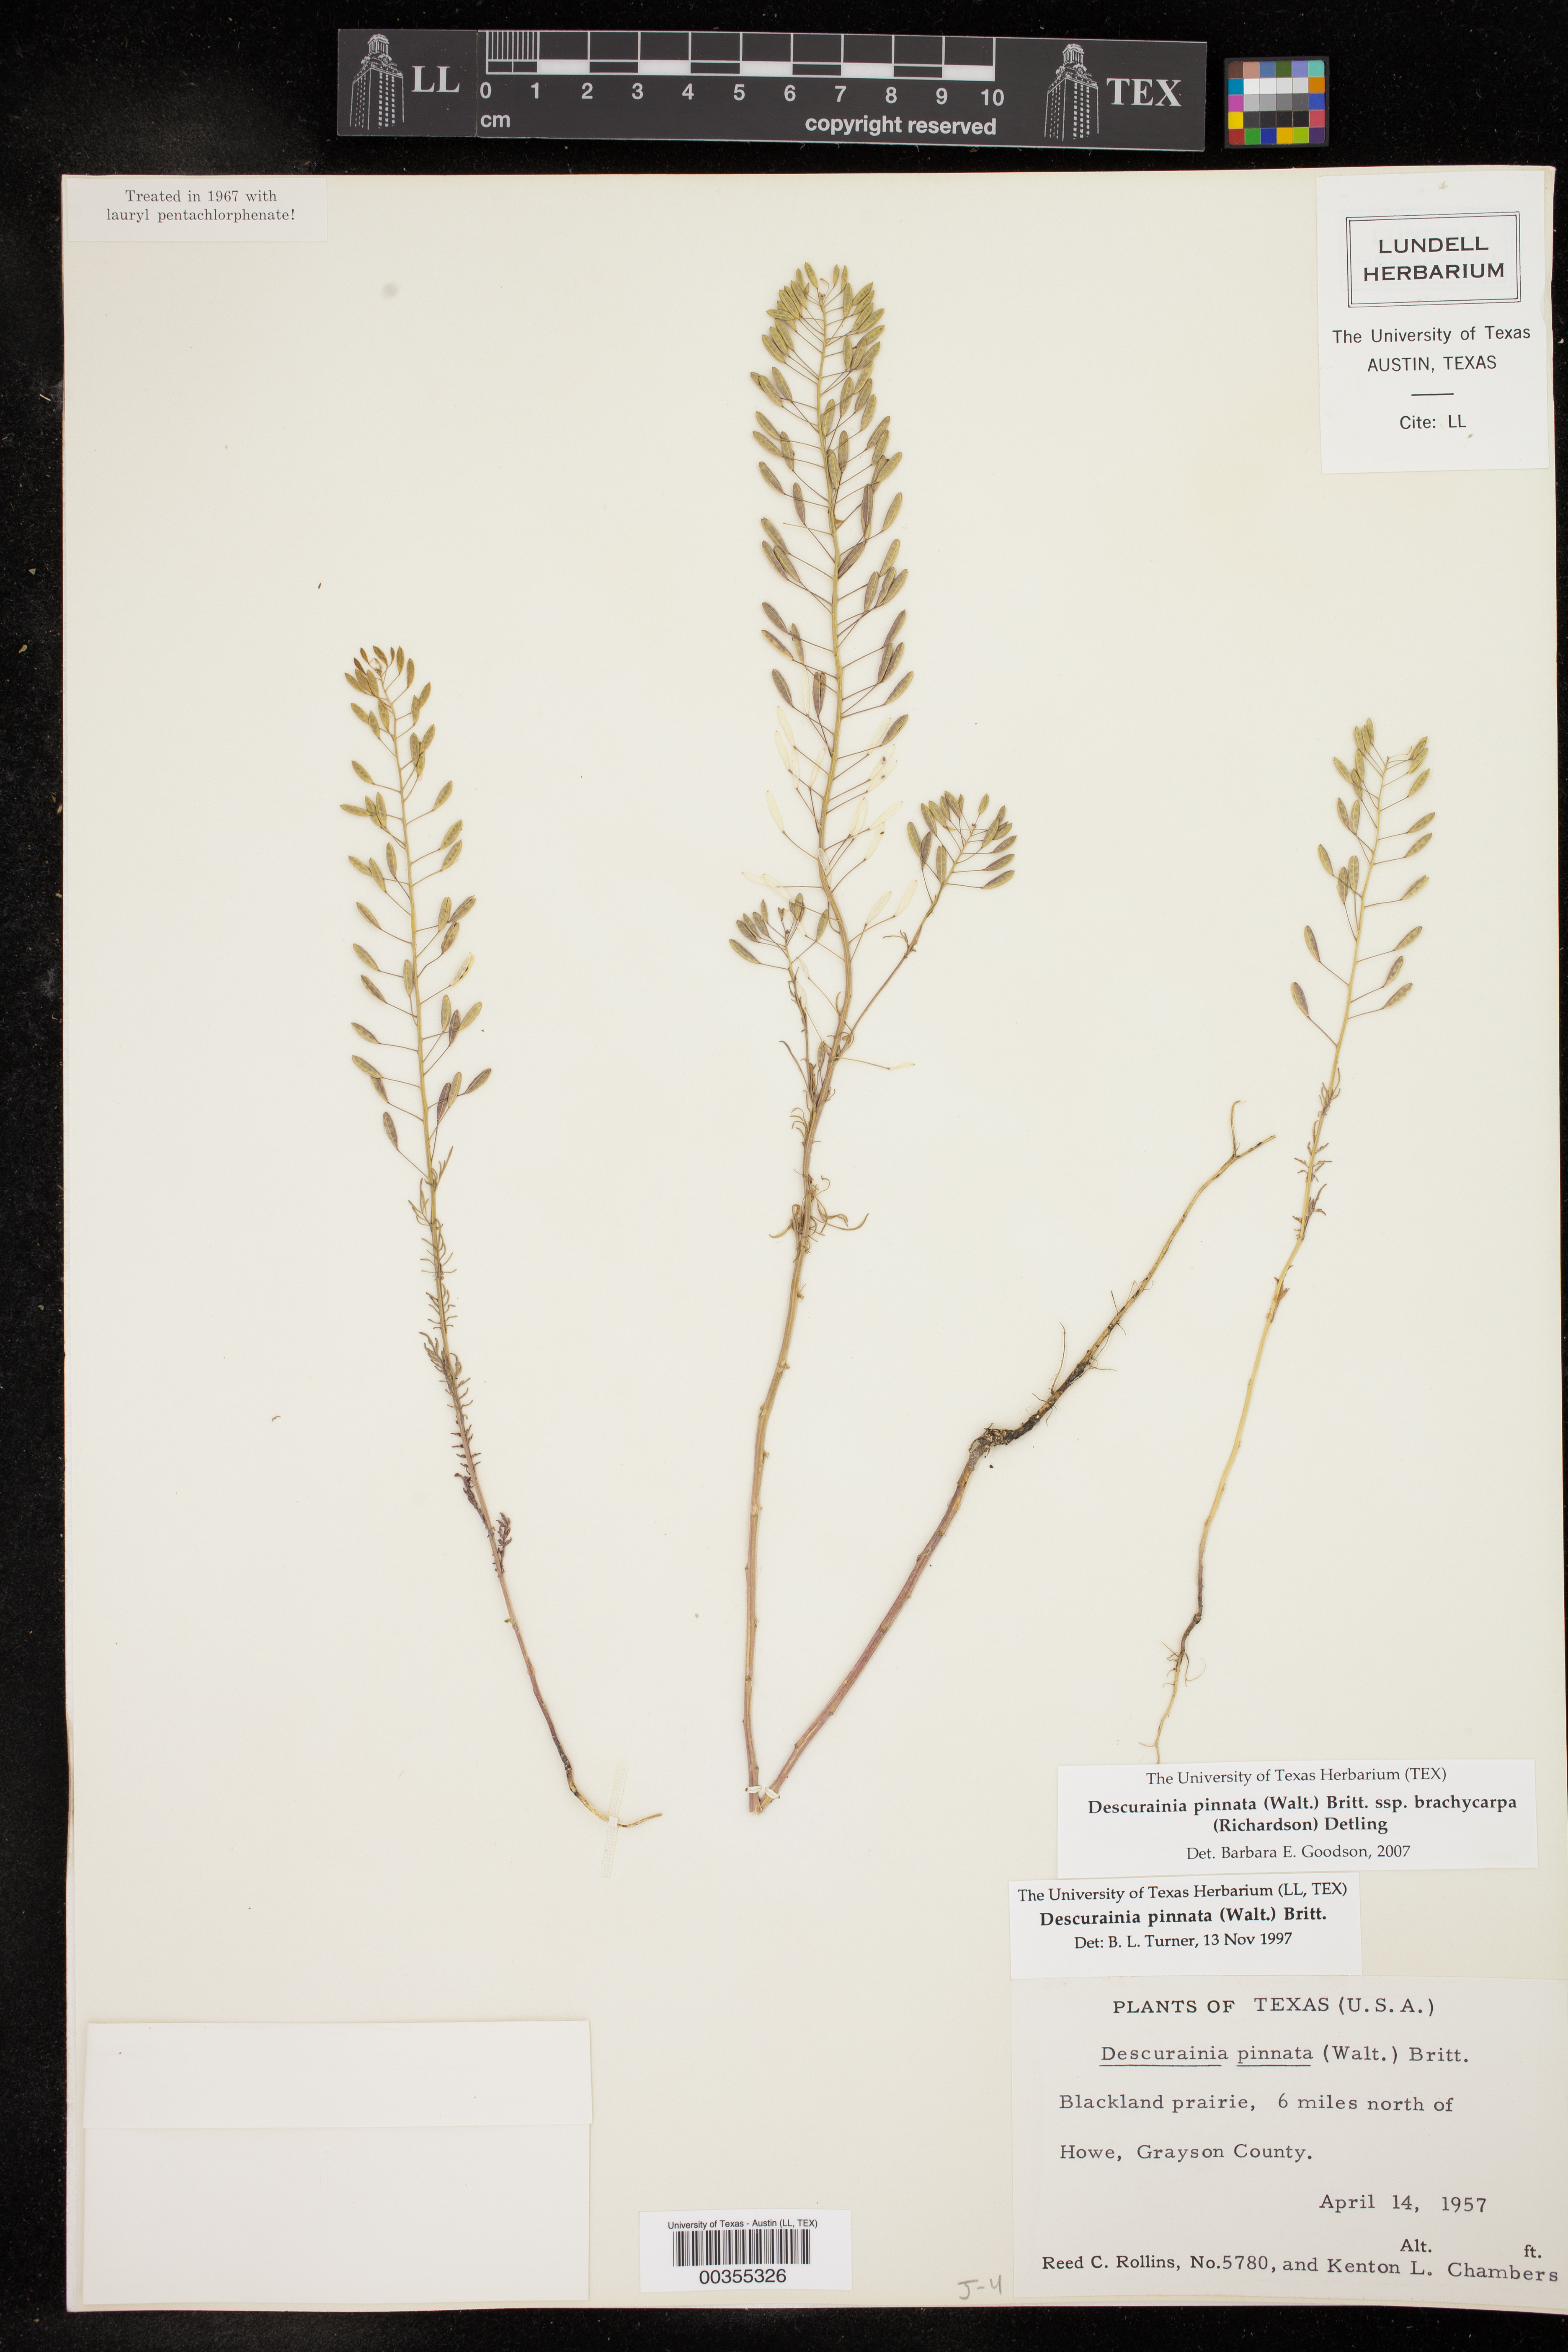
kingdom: Plantae
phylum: Tracheophyta
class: Magnoliopsida
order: Brassicales
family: Brassicaceae
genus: Descurainia
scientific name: Descurainia pinnata
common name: Western tansy mustard
